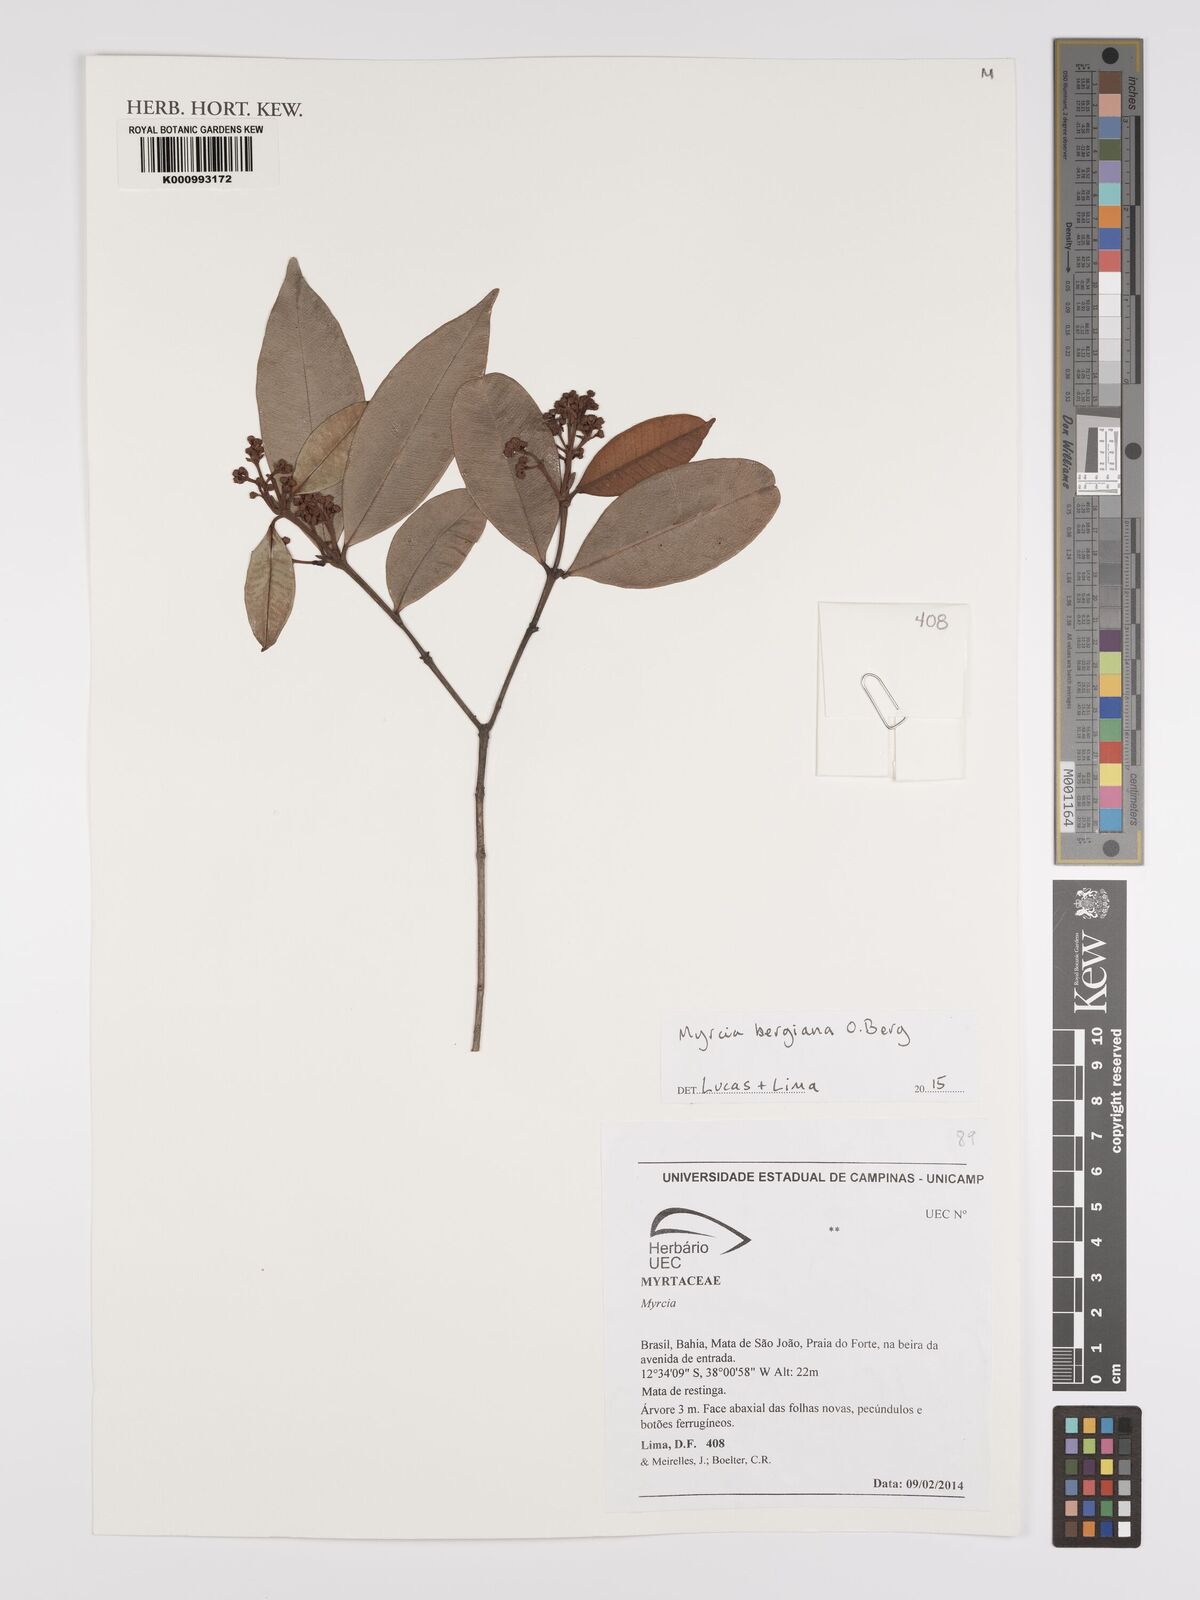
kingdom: Plantae
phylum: Tracheophyta
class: Magnoliopsida
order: Myrtales
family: Myrtaceae
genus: Myrcia
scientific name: Myrcia bergiana
